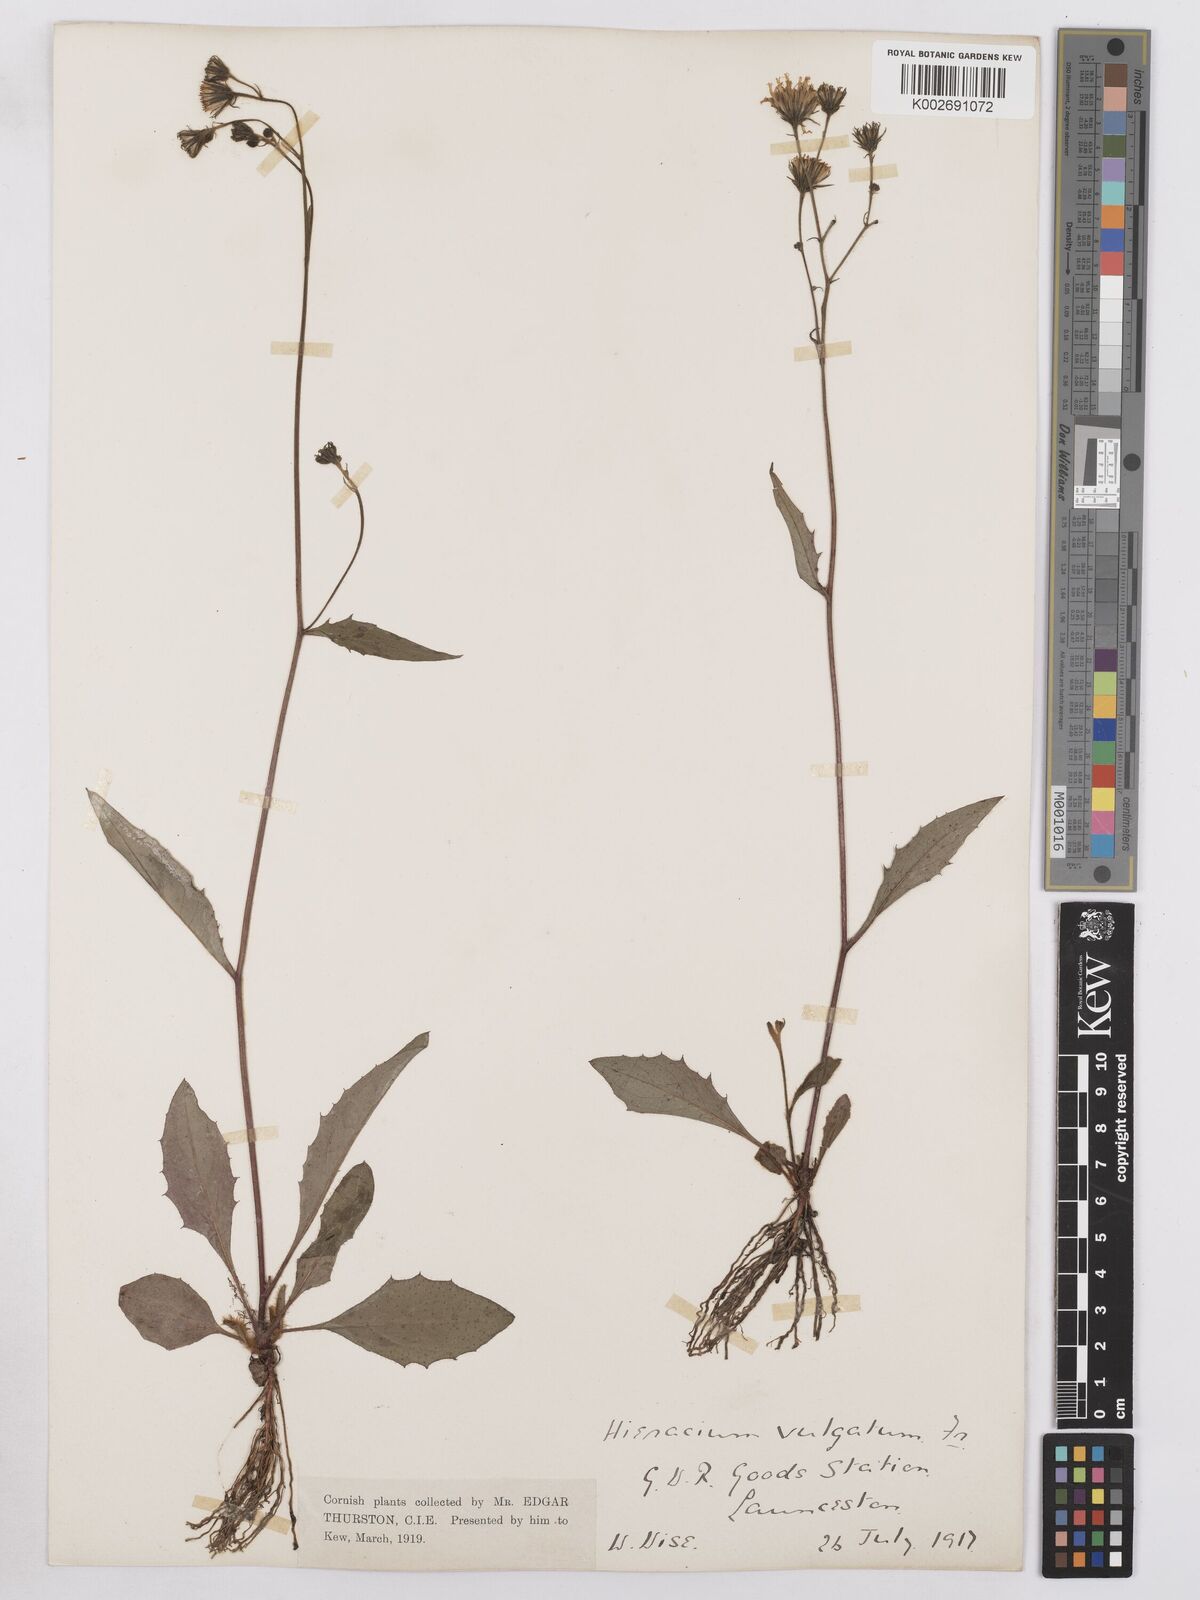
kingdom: Plantae
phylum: Tracheophyta
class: Magnoliopsida
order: Asterales
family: Asteraceae
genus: Hieracium
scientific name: Hieracium lachenalii
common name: Common hawkweed
